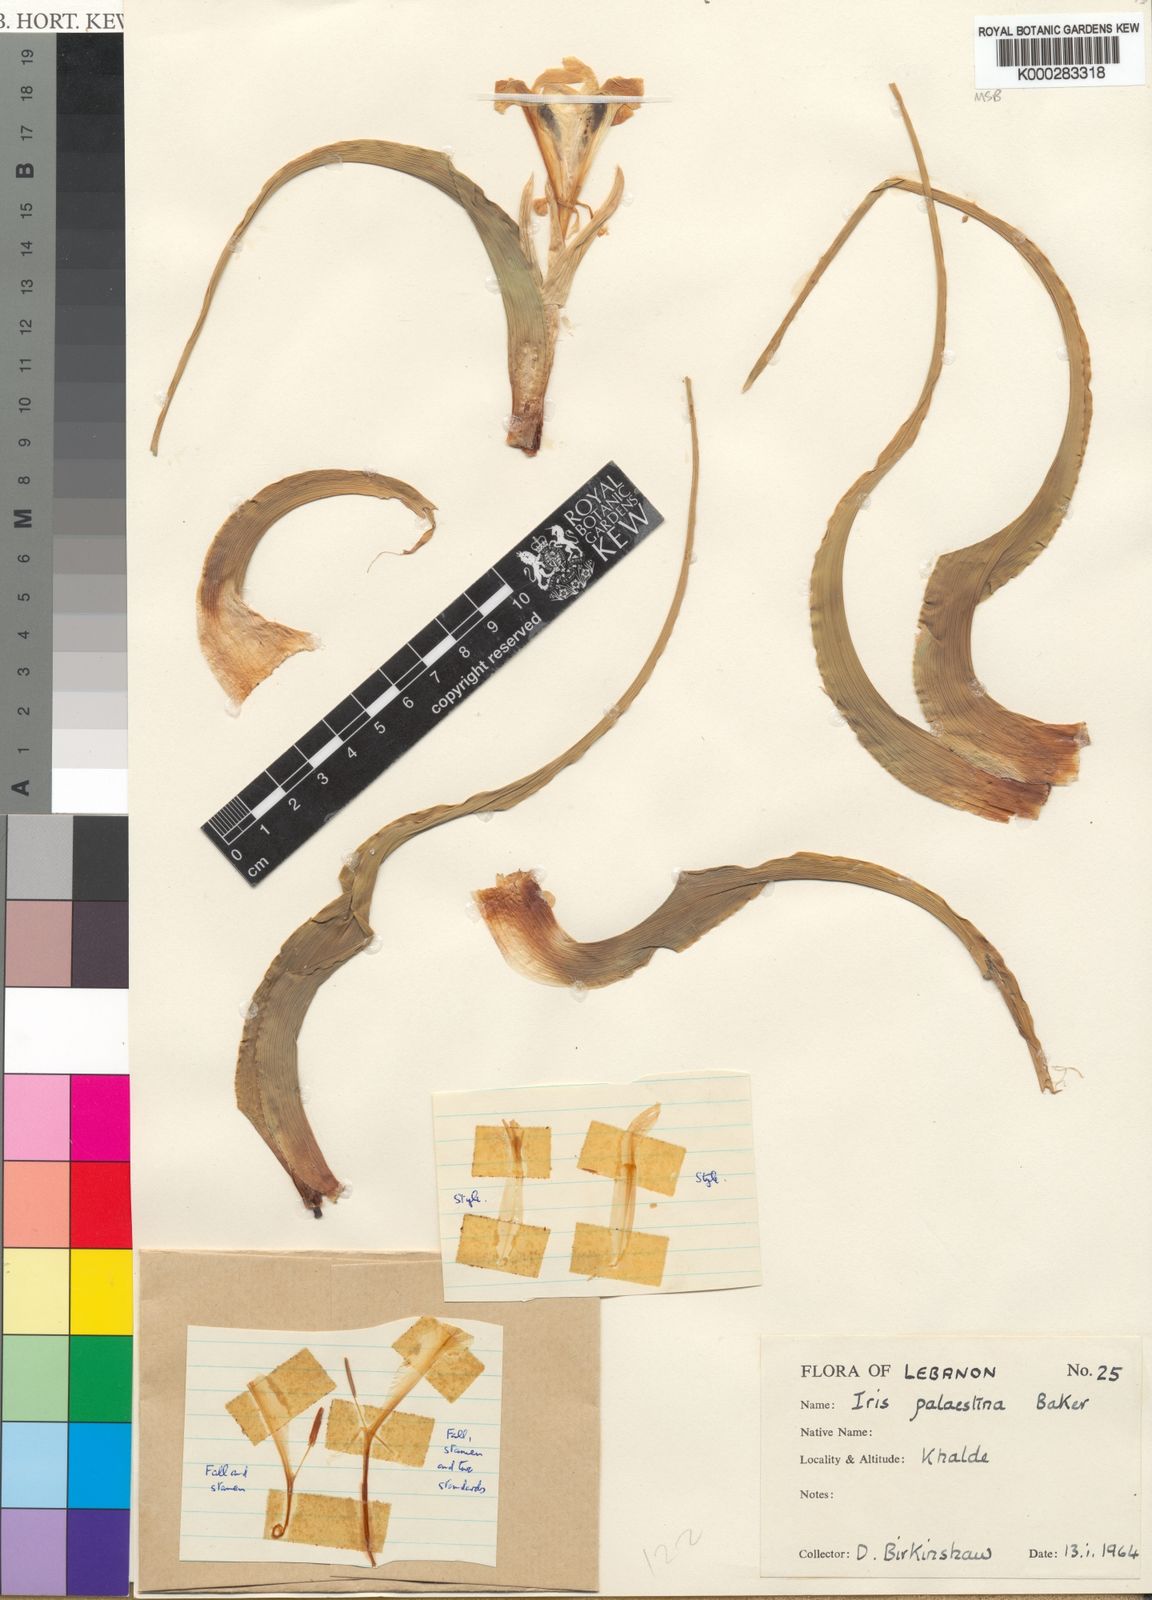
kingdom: Plantae
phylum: Tracheophyta
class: Liliopsida
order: Asparagales
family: Iridaceae
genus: Iris
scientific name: Iris palaestina
